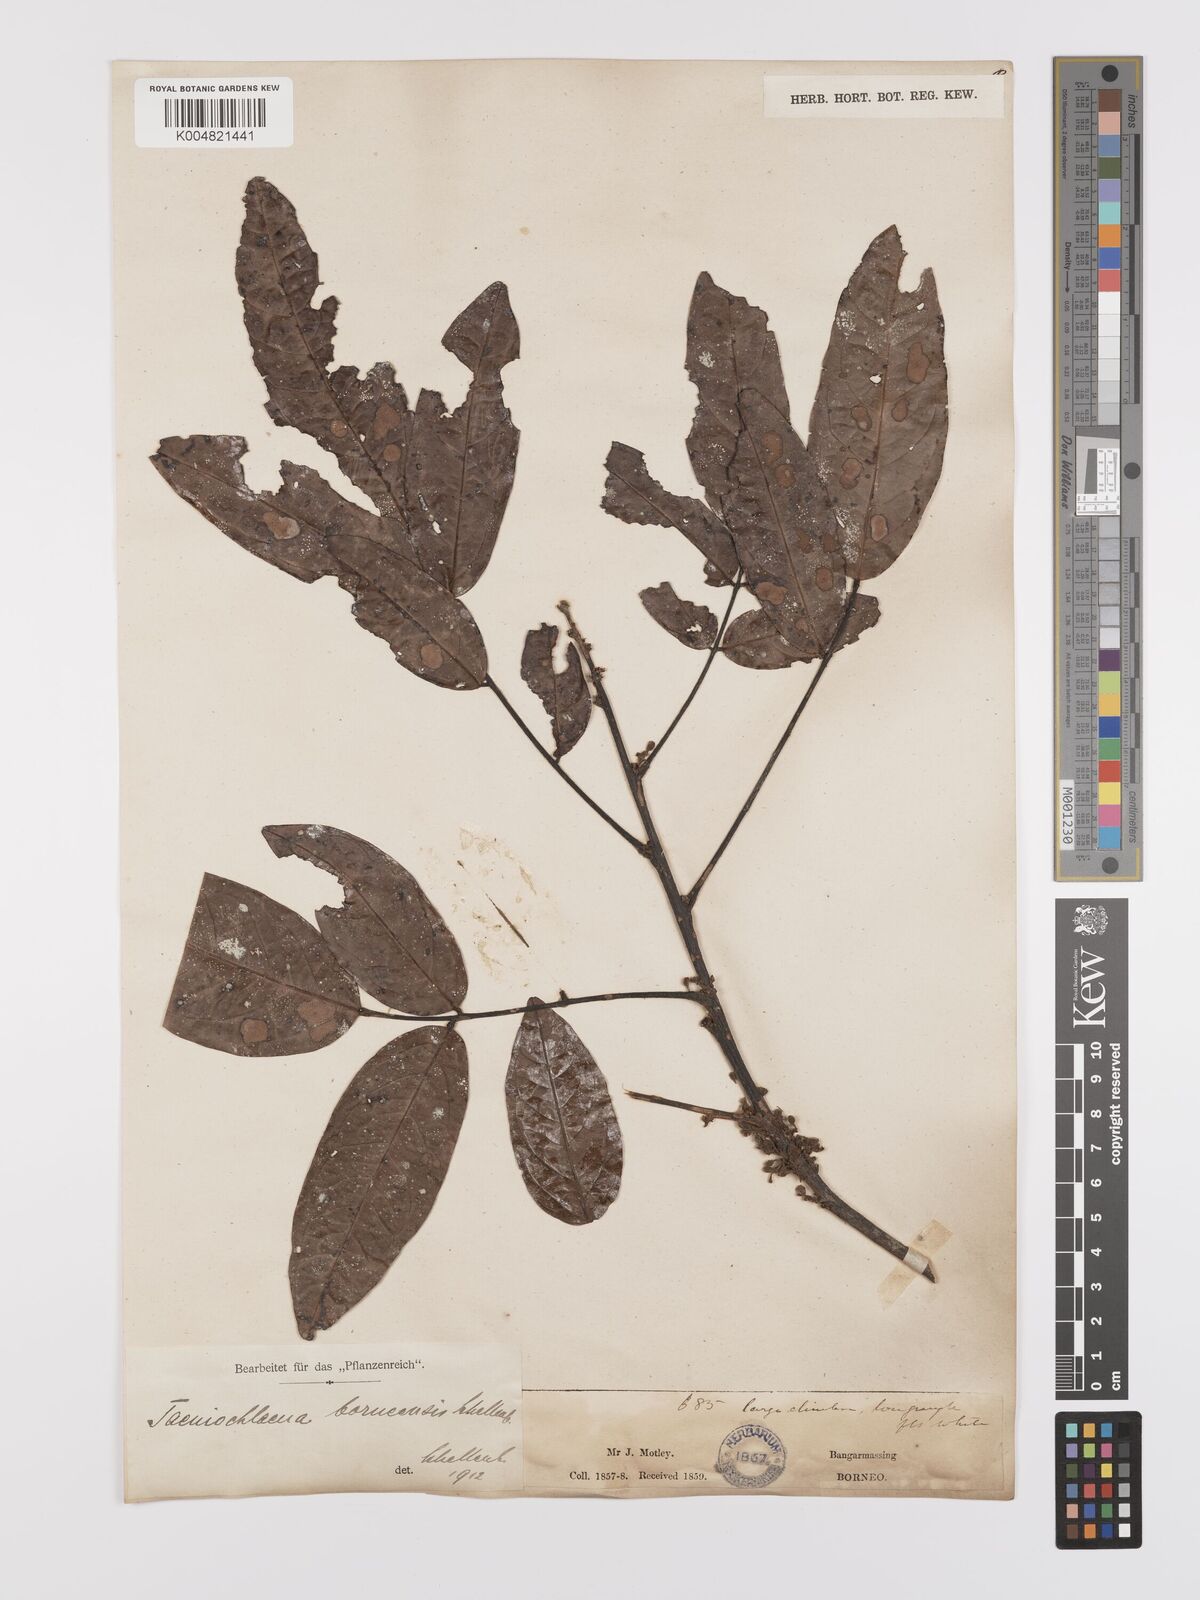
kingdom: Plantae
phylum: Tracheophyta
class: Magnoliopsida
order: Oxalidales
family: Connaraceae
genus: Rourea
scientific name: Rourea acutipetala
